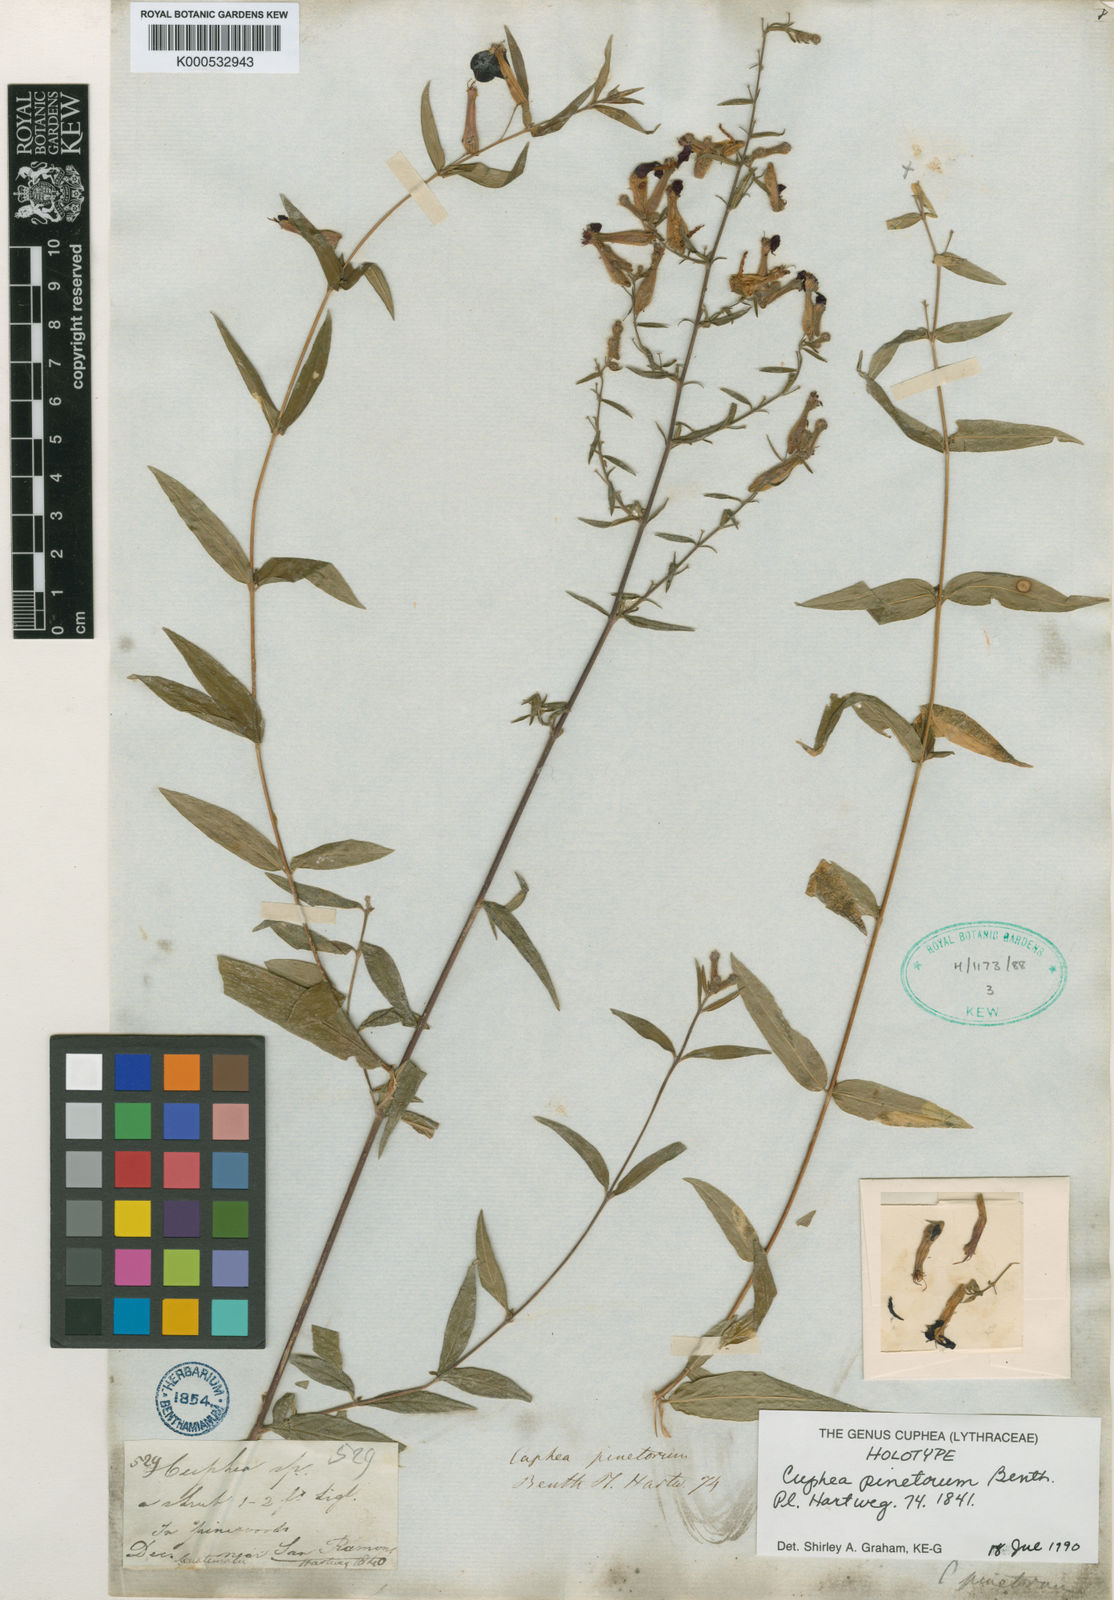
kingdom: Plantae
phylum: Tracheophyta
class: Magnoliopsida
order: Myrtales
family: Lythraceae
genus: Cuphea
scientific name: Cuphea pinetorum
